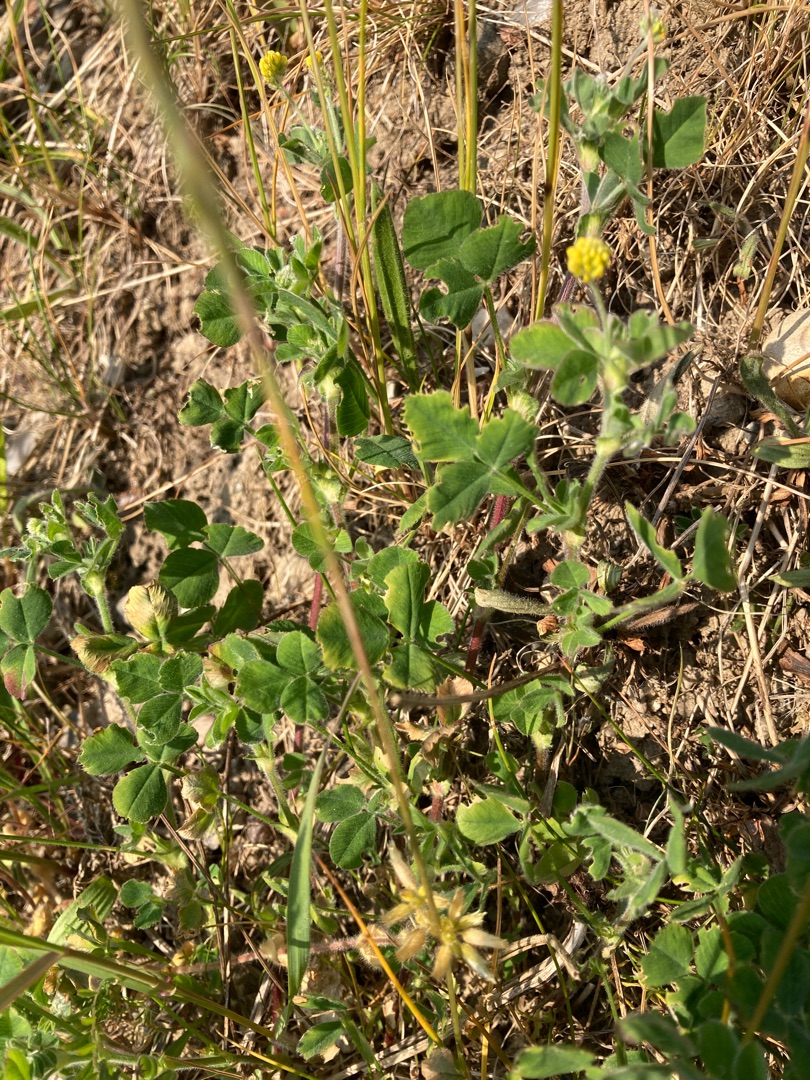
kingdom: Plantae
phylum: Tracheophyta
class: Magnoliopsida
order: Fabales
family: Fabaceae
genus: Medicago
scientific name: Medicago lupulina
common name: Humle-sneglebælg
